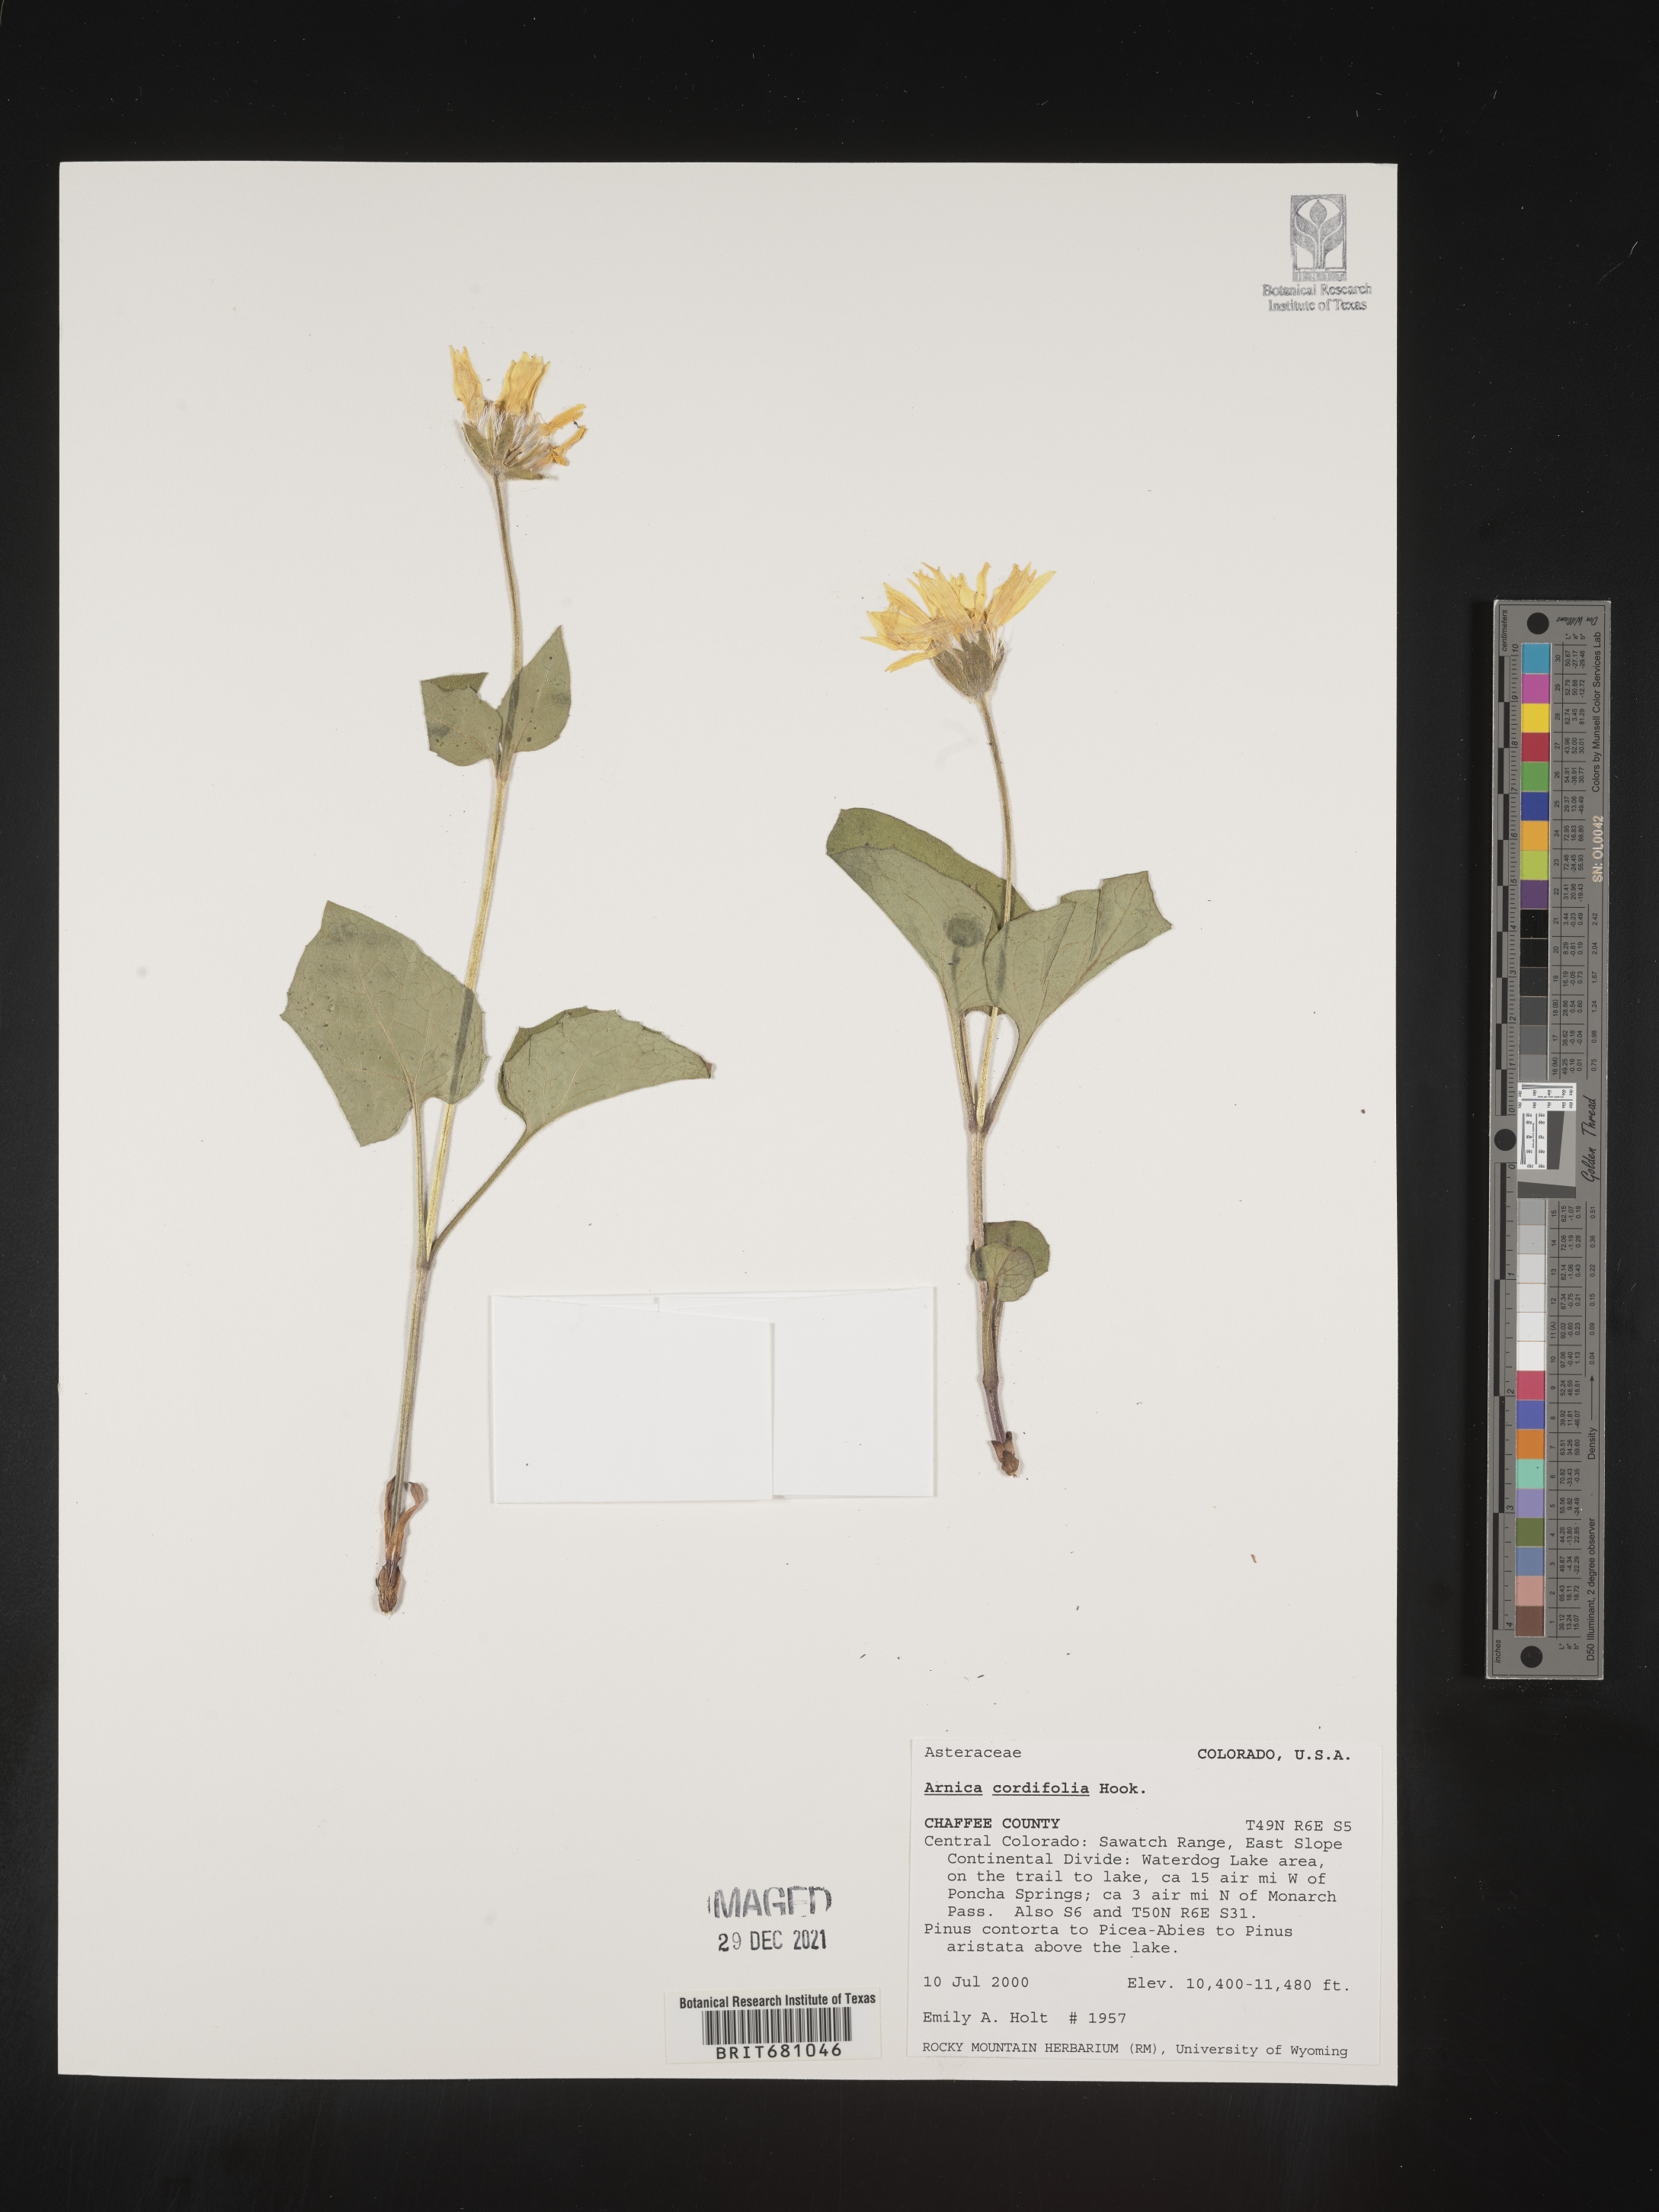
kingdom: Plantae
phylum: Tracheophyta
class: Magnoliopsida
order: Asterales
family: Asteraceae
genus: Arnica
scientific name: Arnica cordifolia
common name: Heart-leaf arnica
